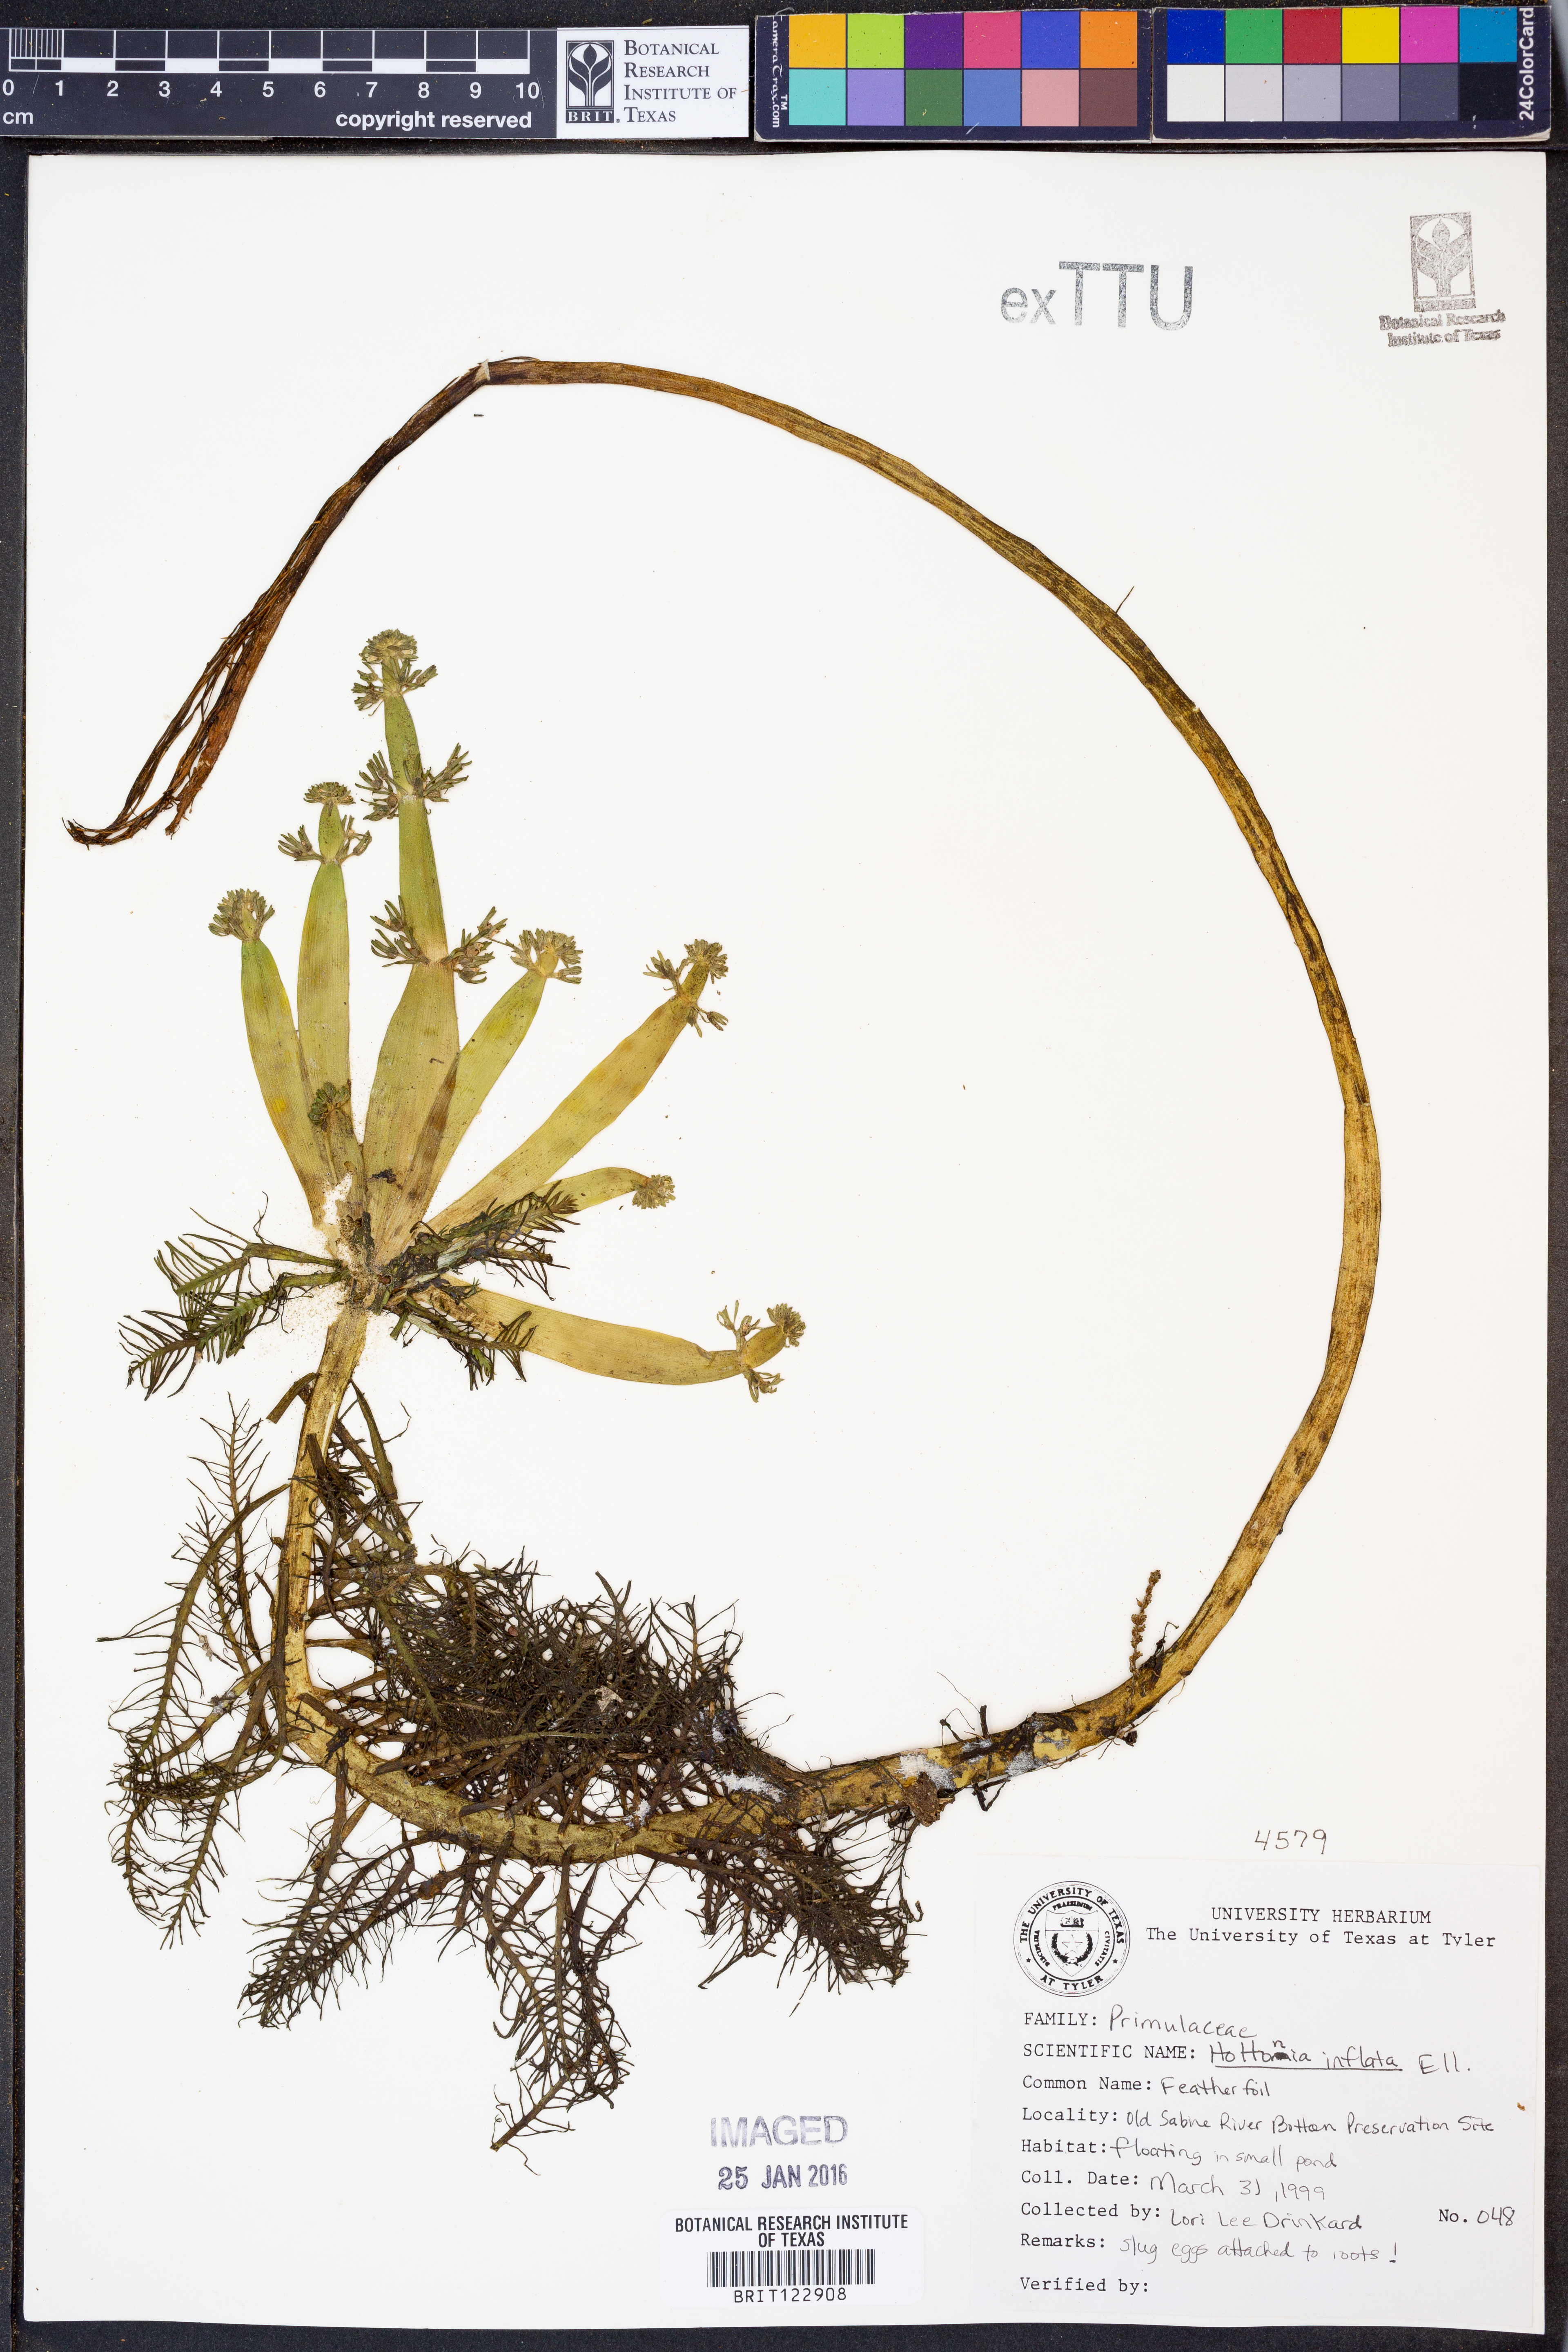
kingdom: Plantae
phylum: Tracheophyta
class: Magnoliopsida
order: Ericales
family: Primulaceae
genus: Hottonia
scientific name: Hottonia inflata
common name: American featherfoil
